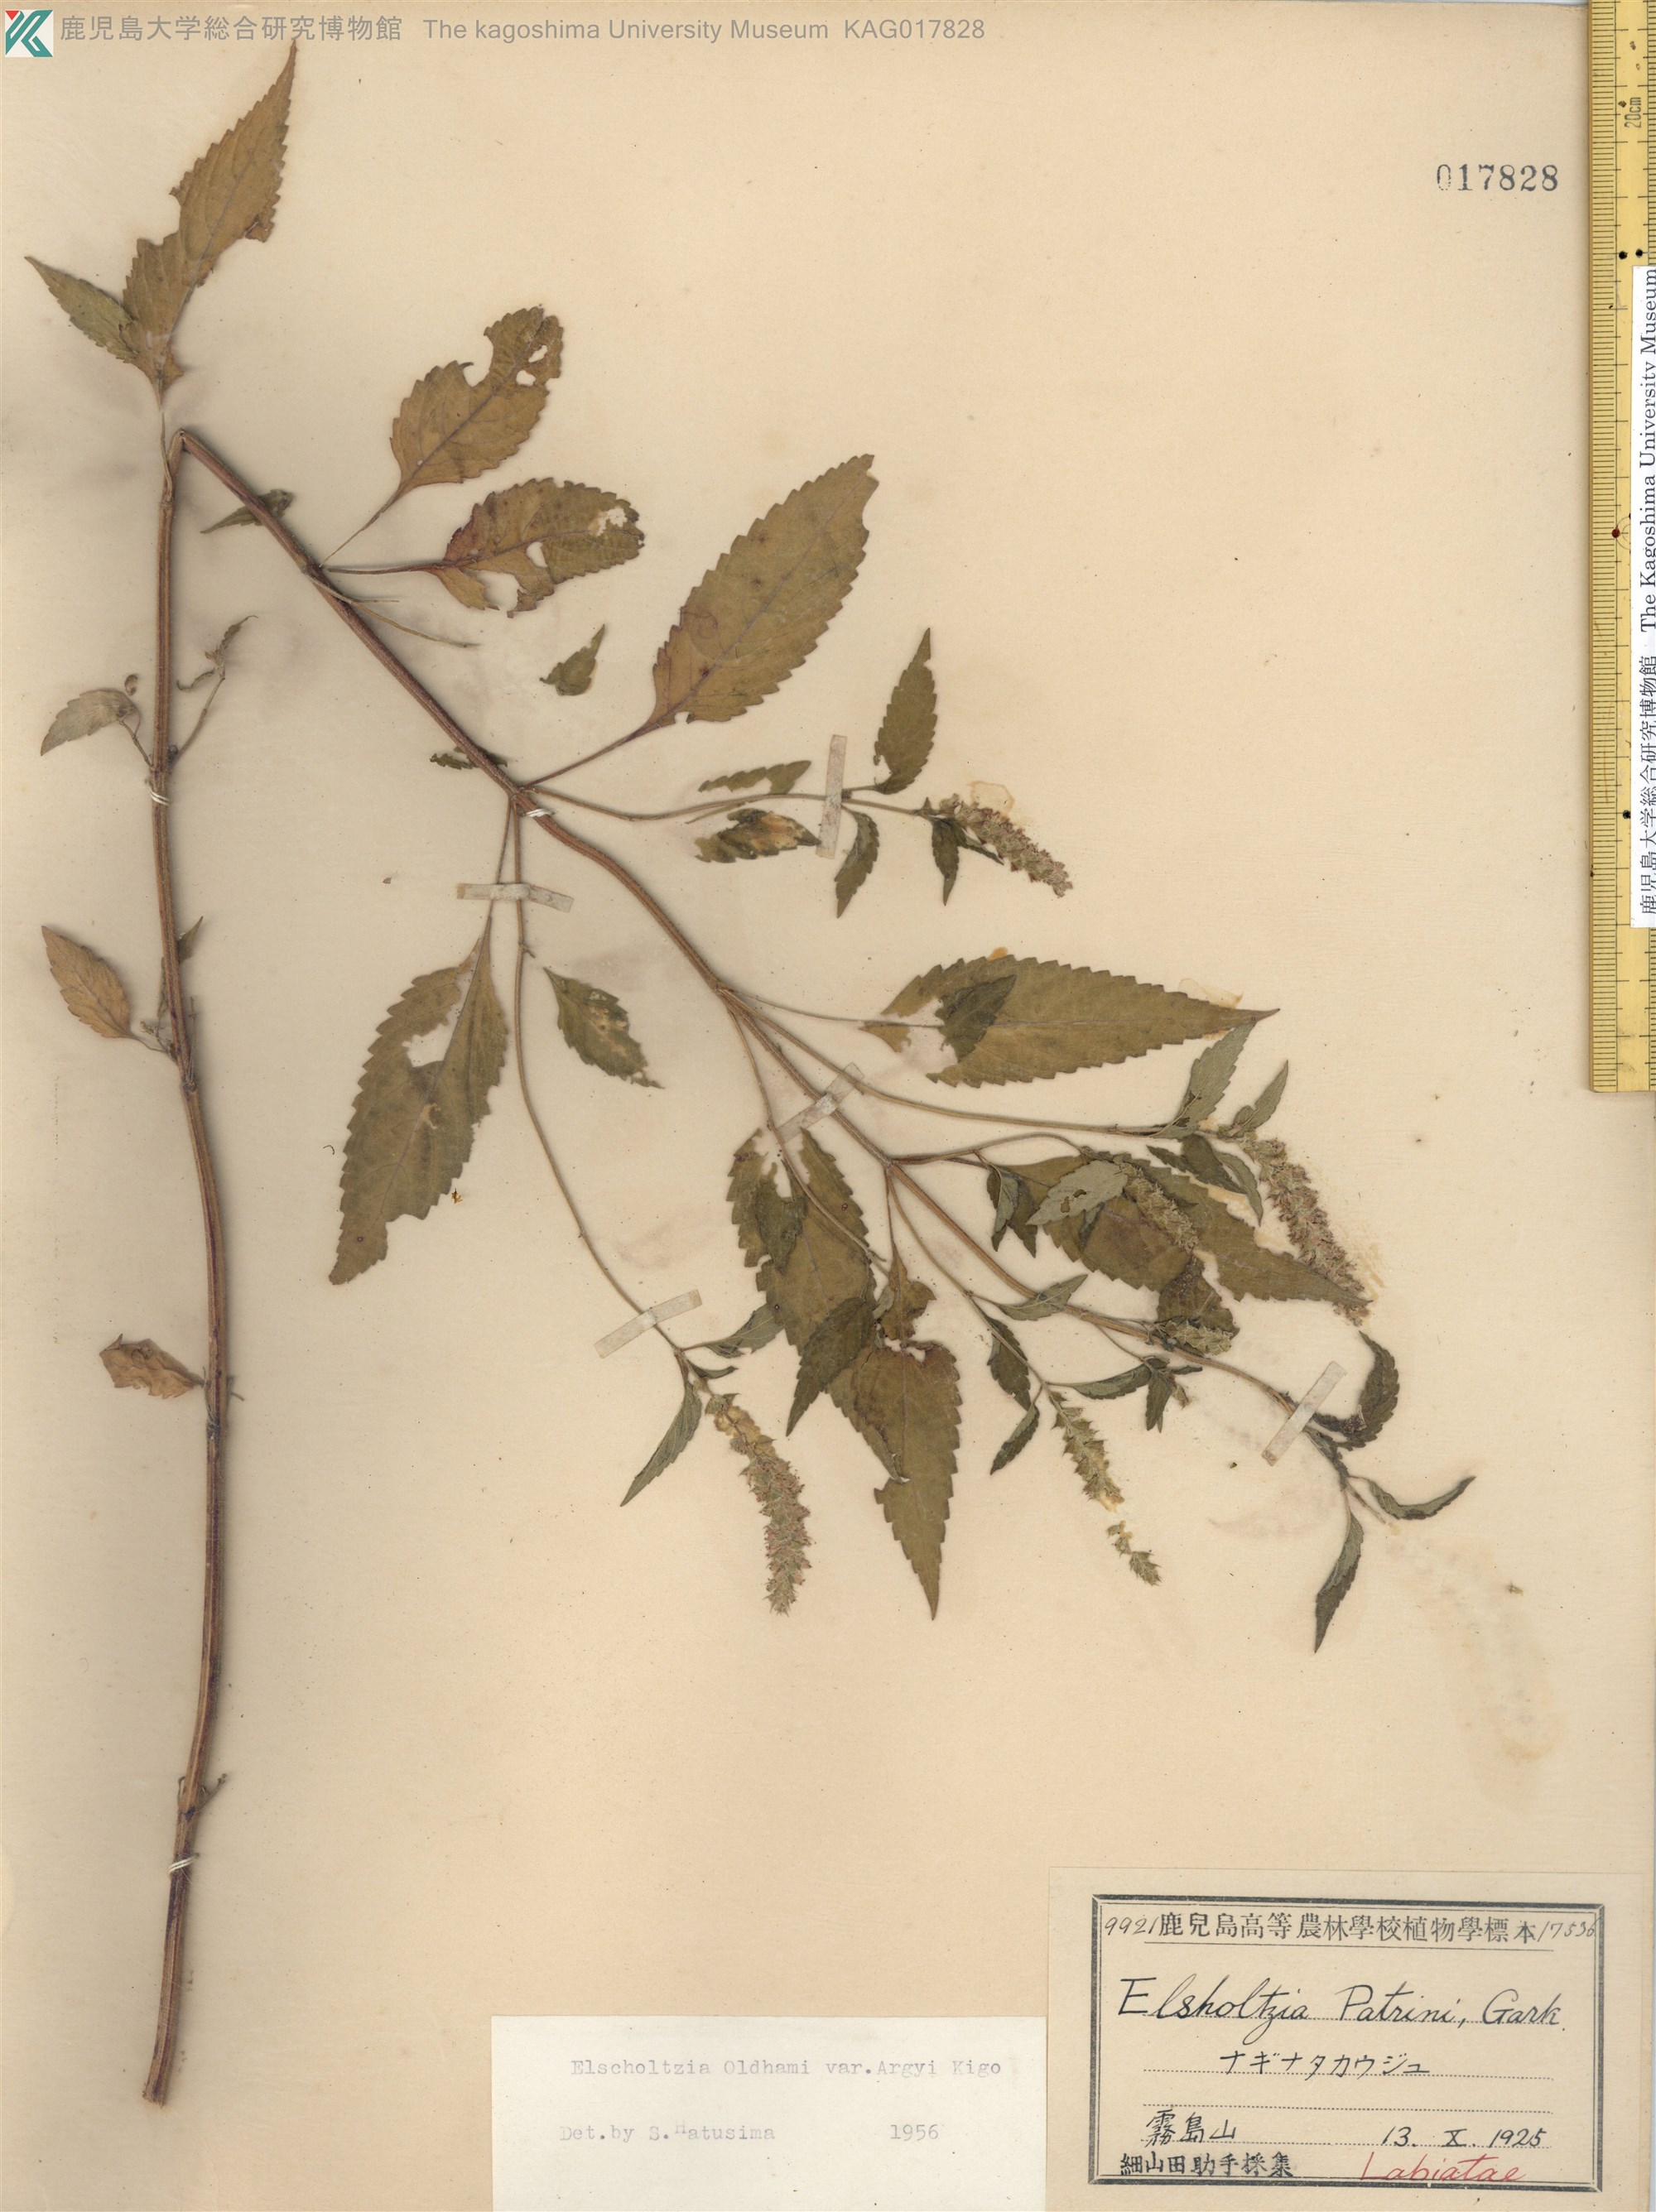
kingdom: Plantae
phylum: Tracheophyta
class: Magnoliopsida
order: Lamiales
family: Lamiaceae
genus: Elsholtzia
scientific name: Elsholtzia nipponica
